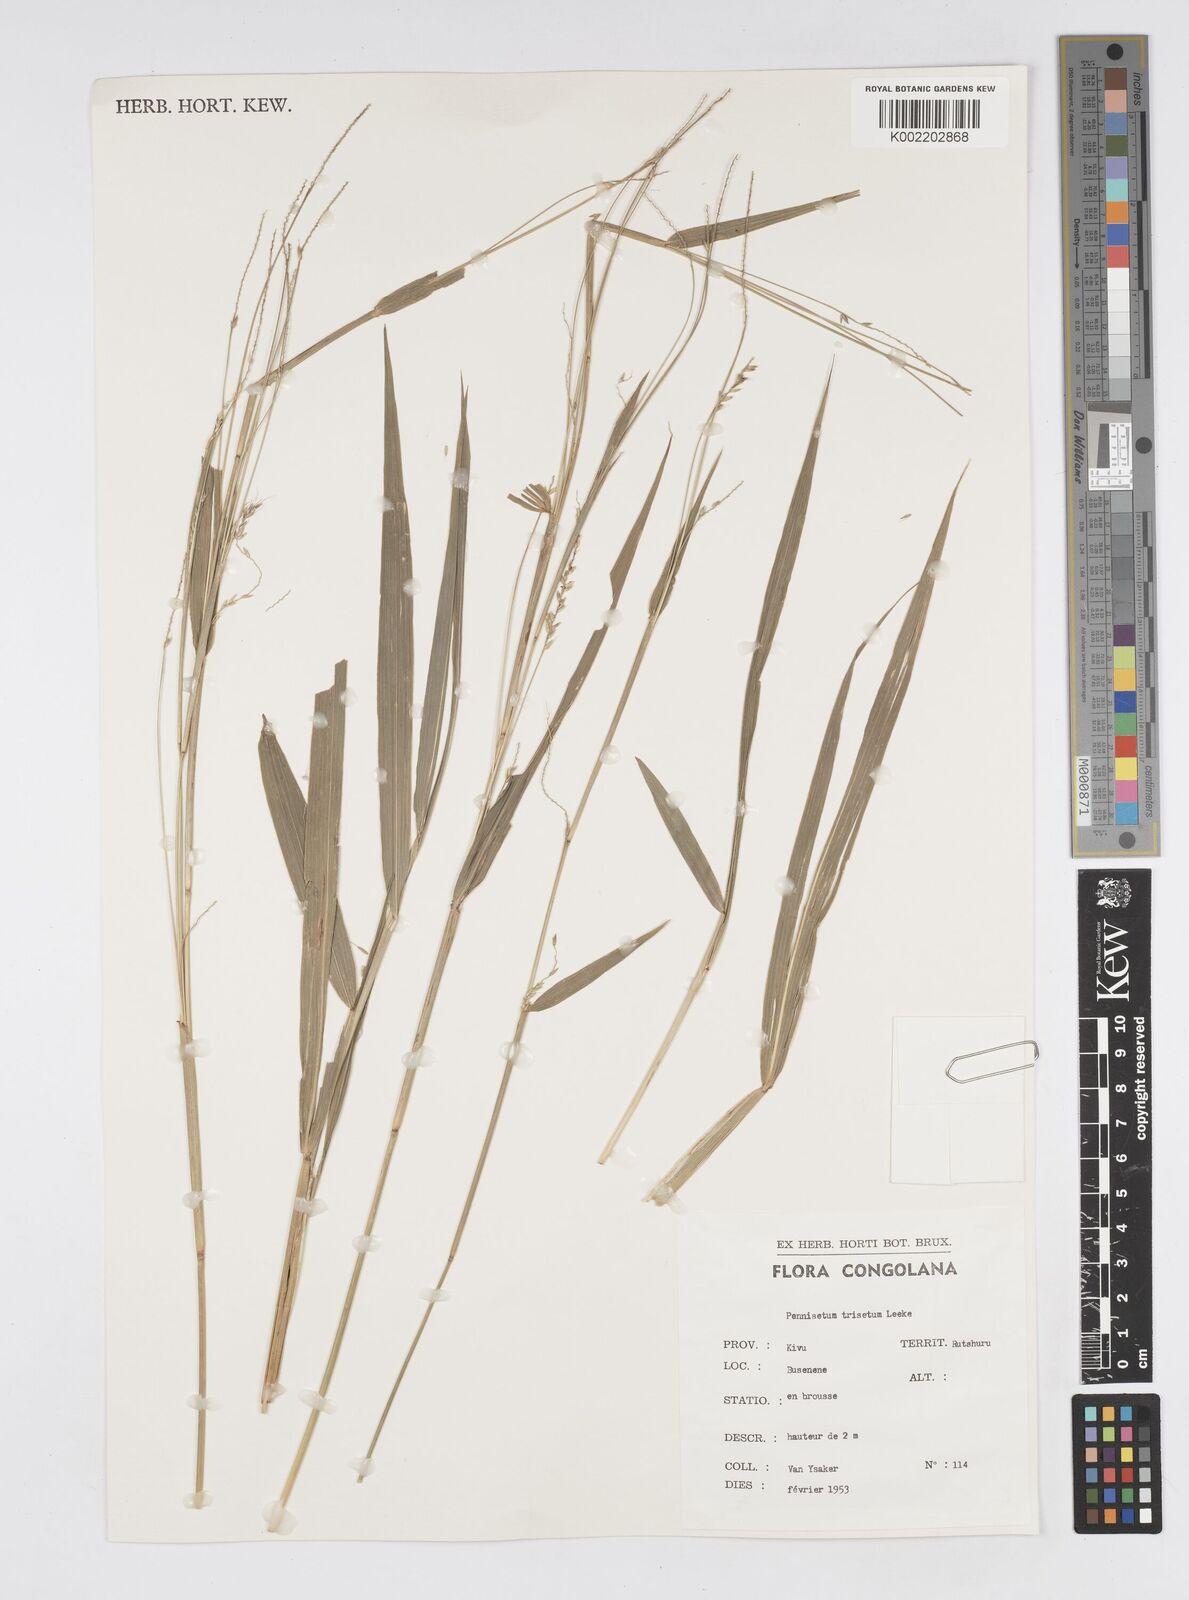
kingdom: Plantae
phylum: Tracheophyta
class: Liliopsida
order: Poales
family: Poaceae
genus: Cenchrus
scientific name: Cenchrus trisetus
